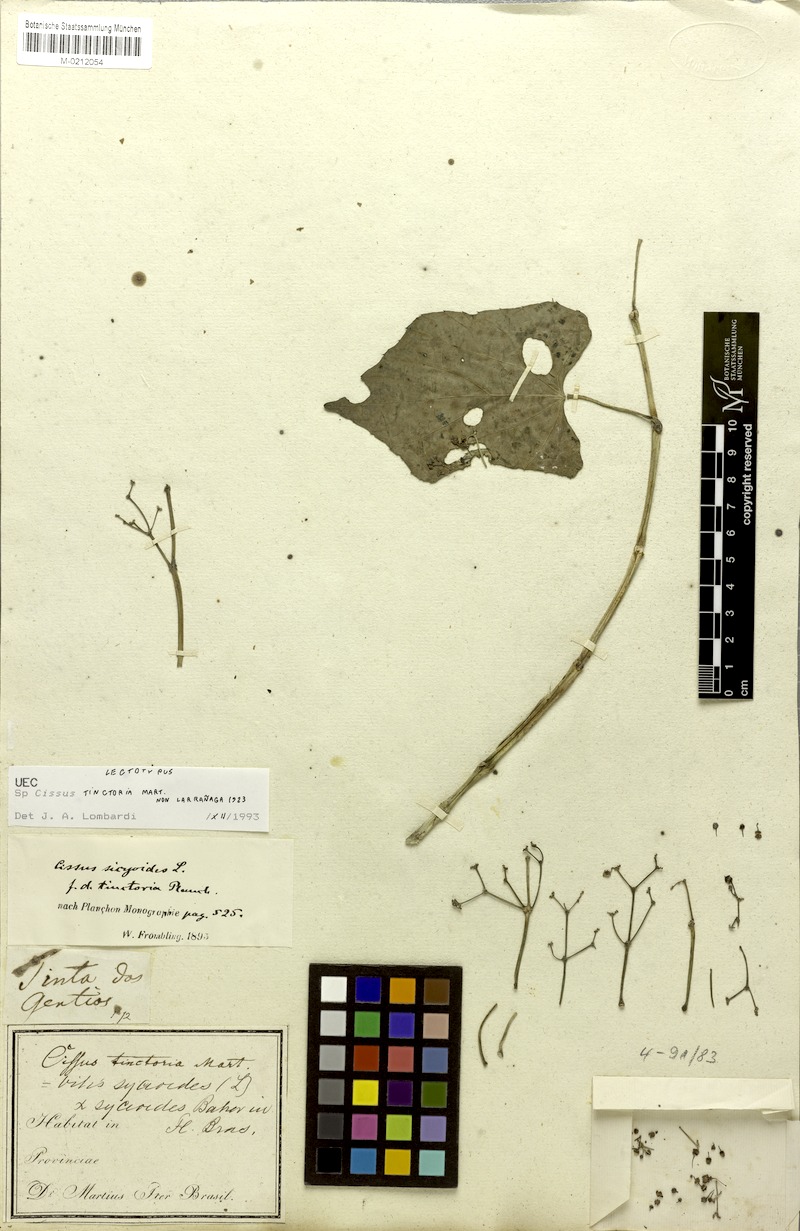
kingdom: Plantae
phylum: Tracheophyta
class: Magnoliopsida
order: Vitales
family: Vitaceae
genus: Cissus
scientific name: Cissus tinctoria
